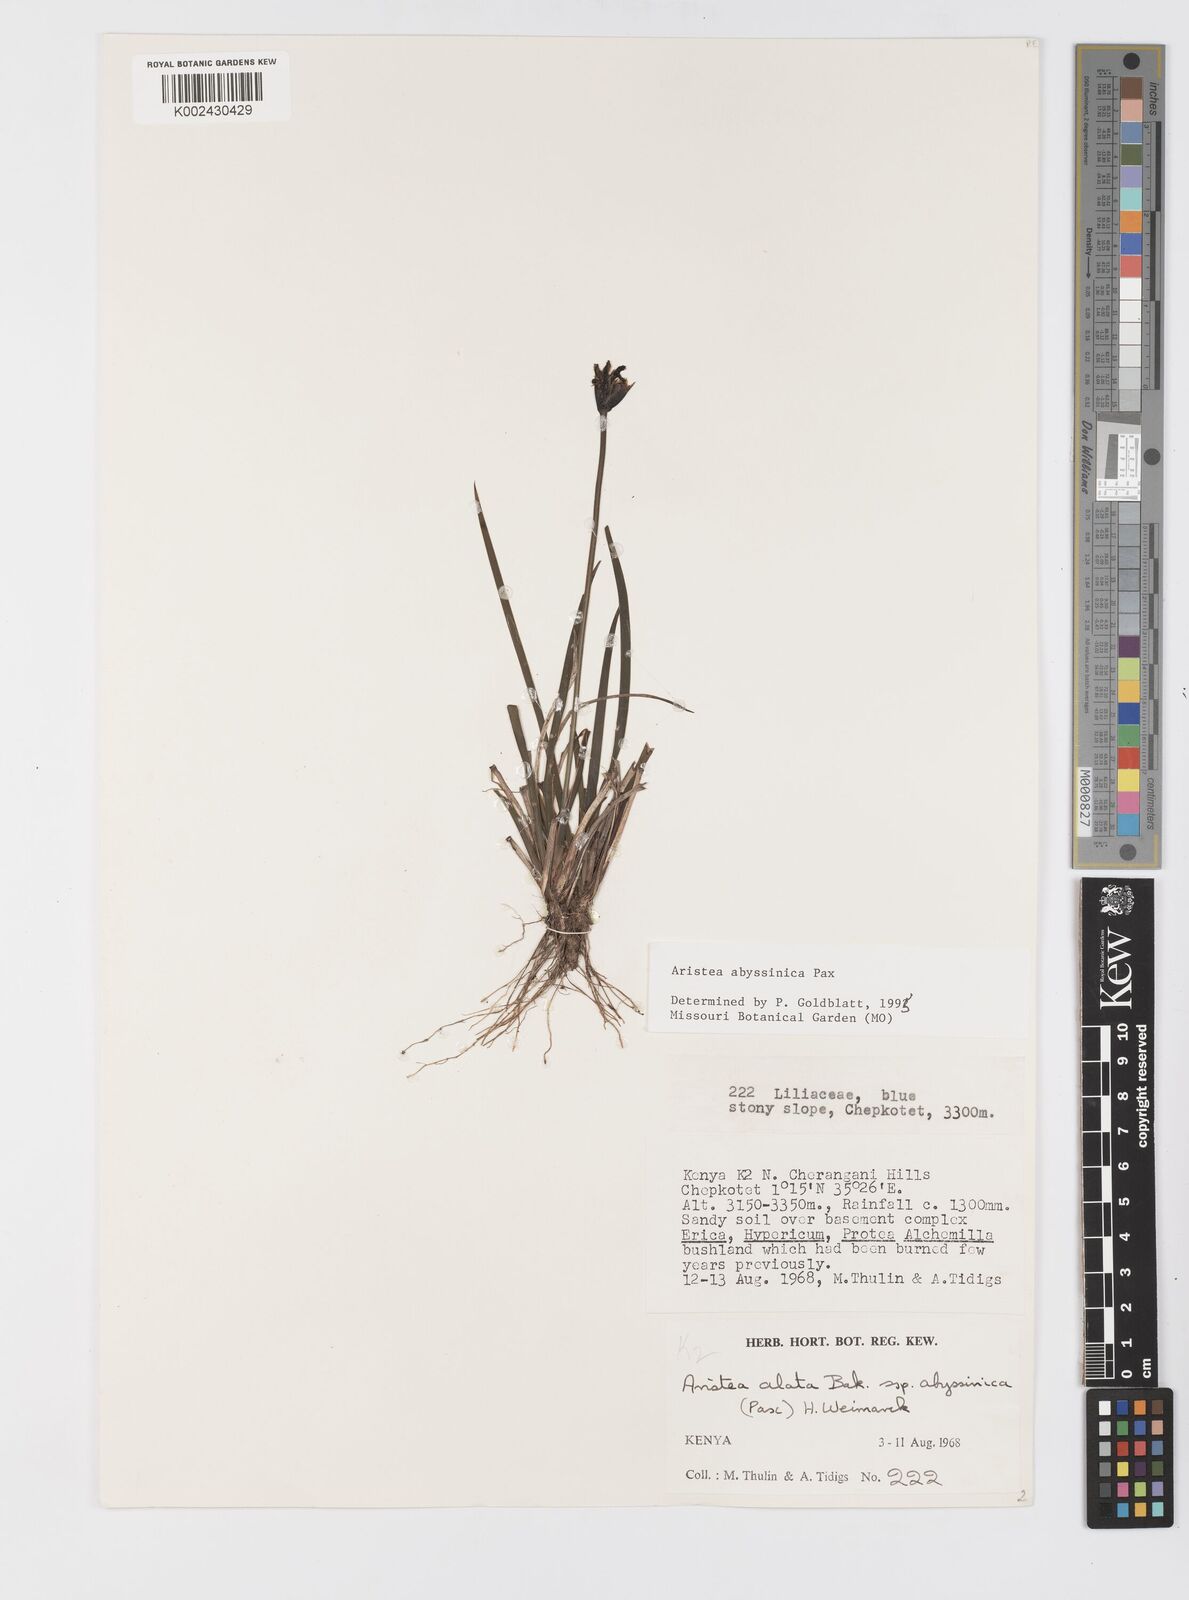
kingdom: Plantae
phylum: Tracheophyta
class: Liliopsida
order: Asparagales
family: Iridaceae
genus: Aristea
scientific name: Aristea abyssinica
